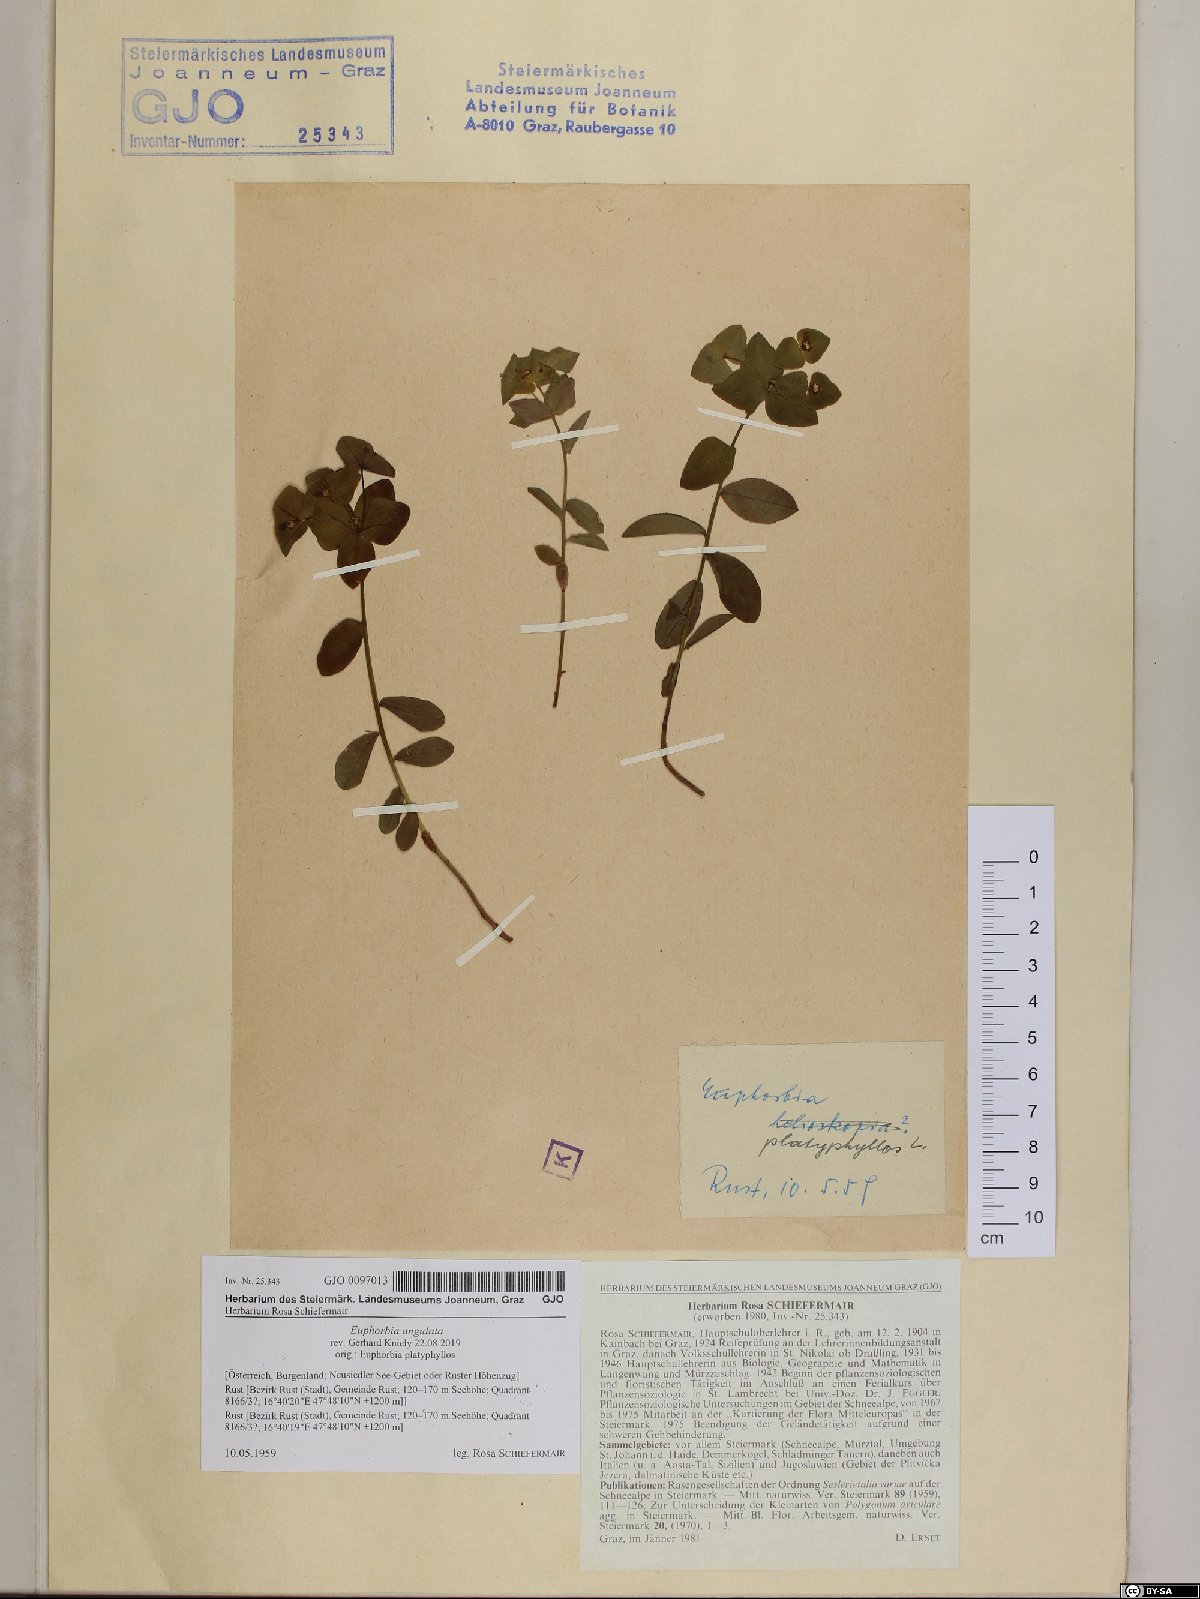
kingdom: Plantae
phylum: Tracheophyta
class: Magnoliopsida
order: Malpighiales
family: Euphorbiaceae
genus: Euphorbia
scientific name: Euphorbia angulata
